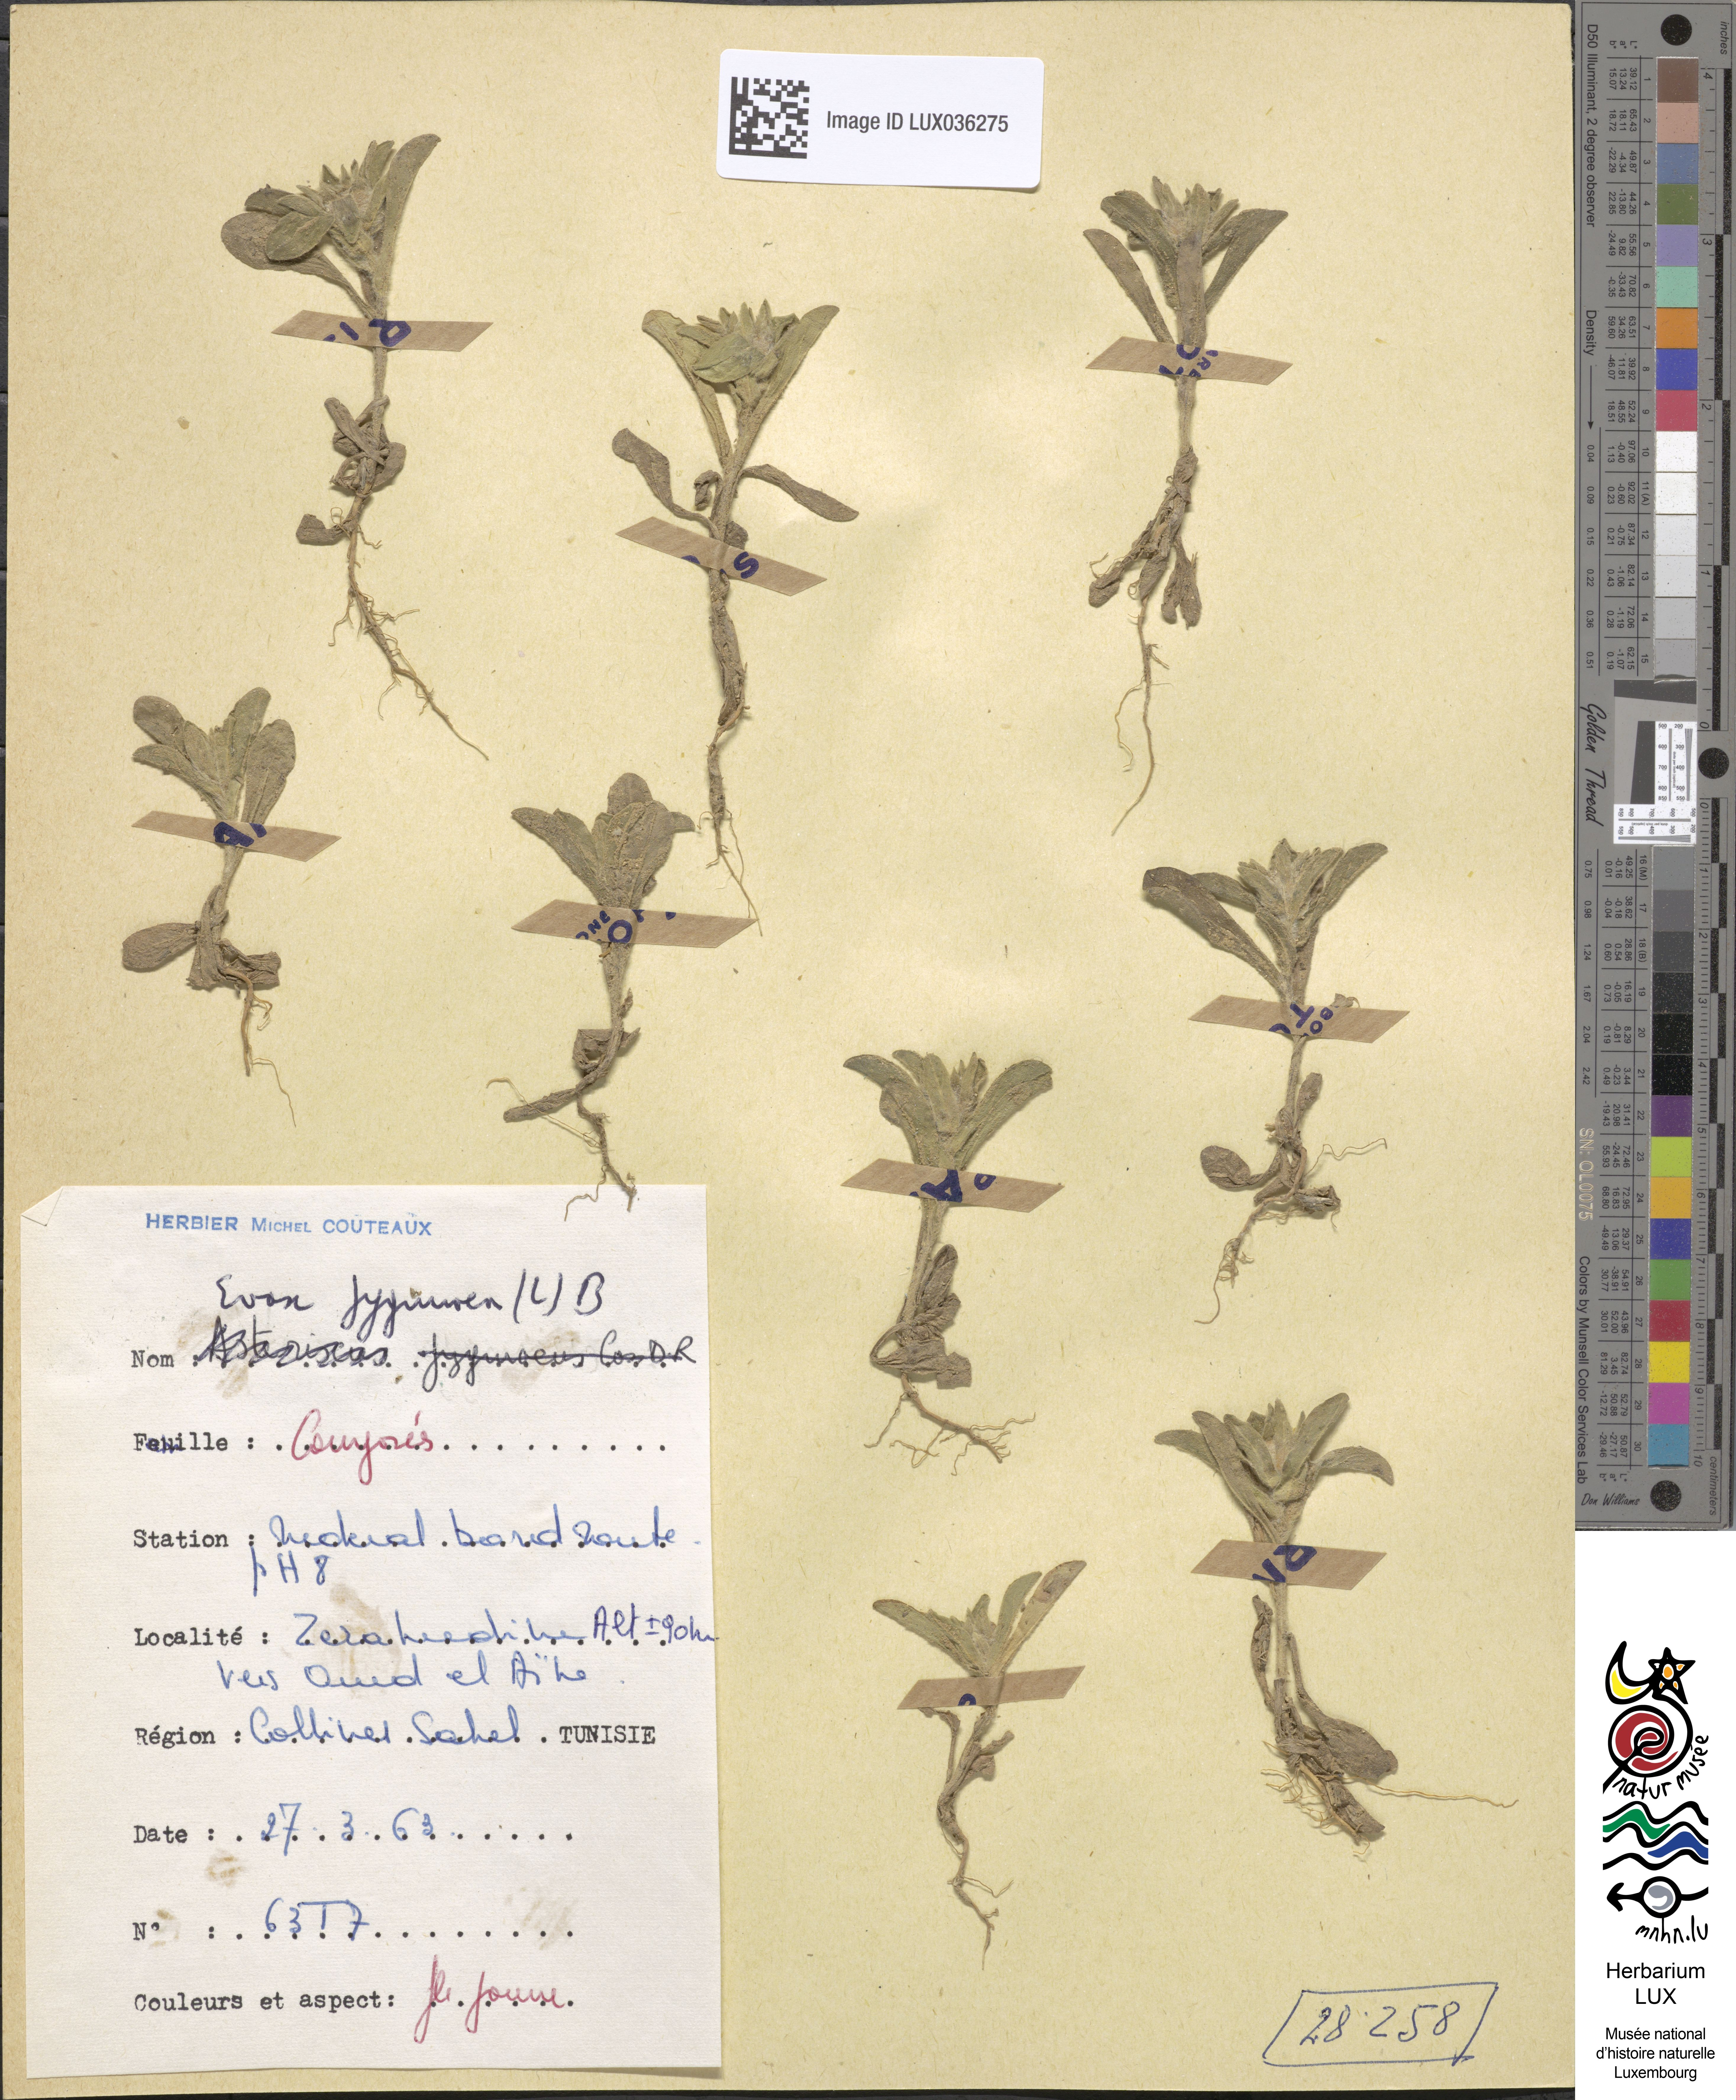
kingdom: Plantae
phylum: Tracheophyta
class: Magnoliopsida
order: Asterales
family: Asteraceae
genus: Filago
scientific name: Filago pygmaea
